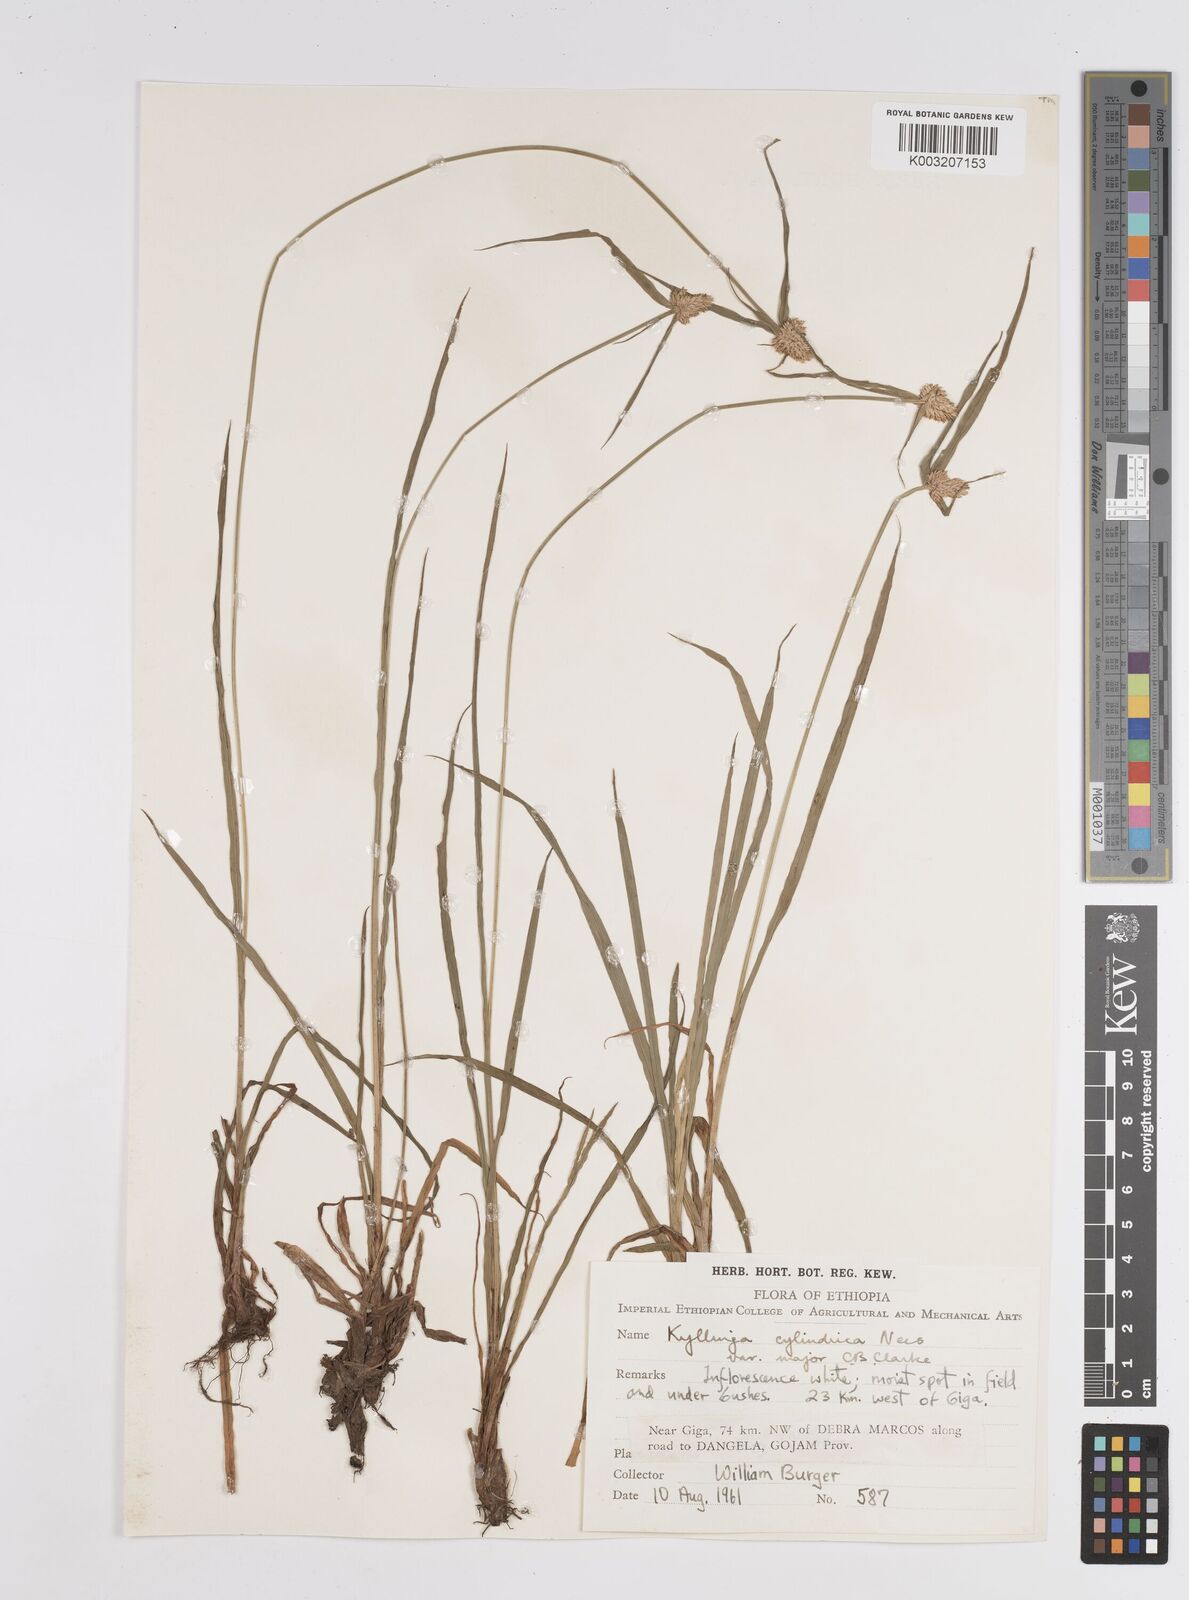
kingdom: Plantae
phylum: Tracheophyta
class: Liliopsida
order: Poales
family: Cyperaceae
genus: Cyperus
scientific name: Cyperus
